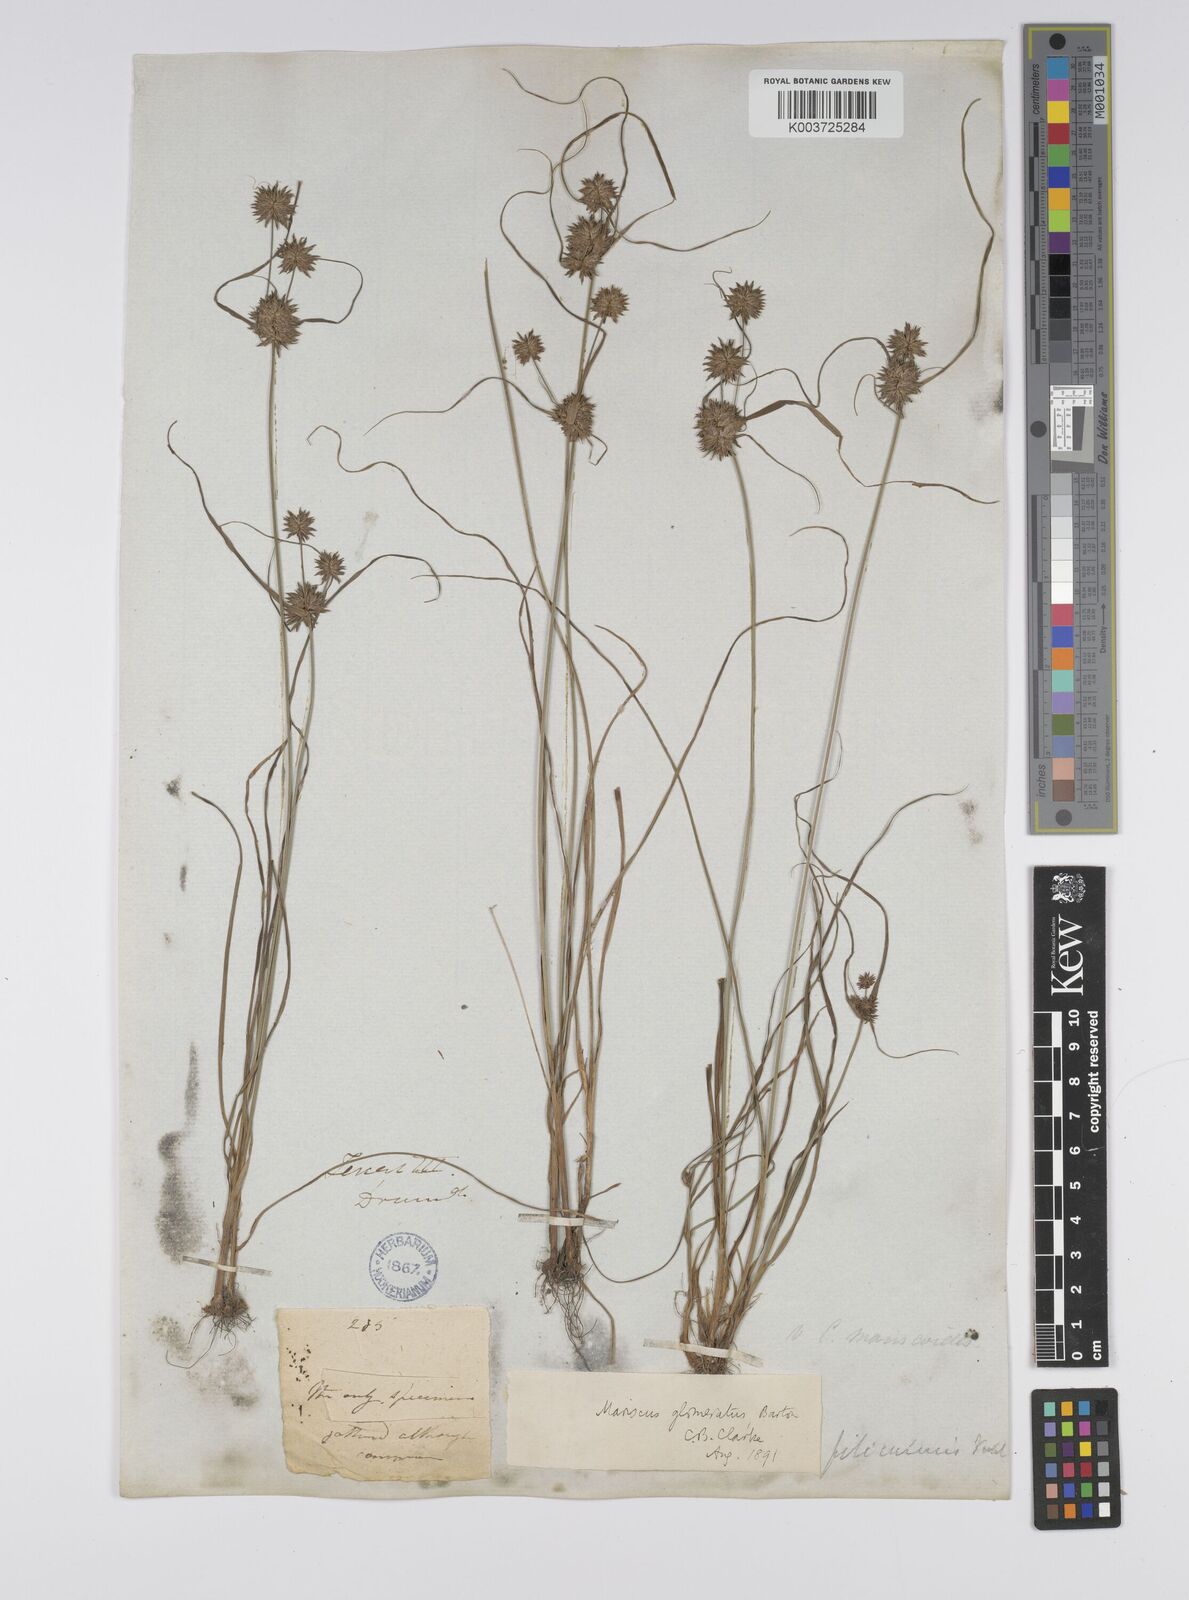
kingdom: Plantae
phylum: Tracheophyta
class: Liliopsida
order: Poales
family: Cyperaceae
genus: Cyperus
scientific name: Cyperus lupulinus
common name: Great plains flatsedge
